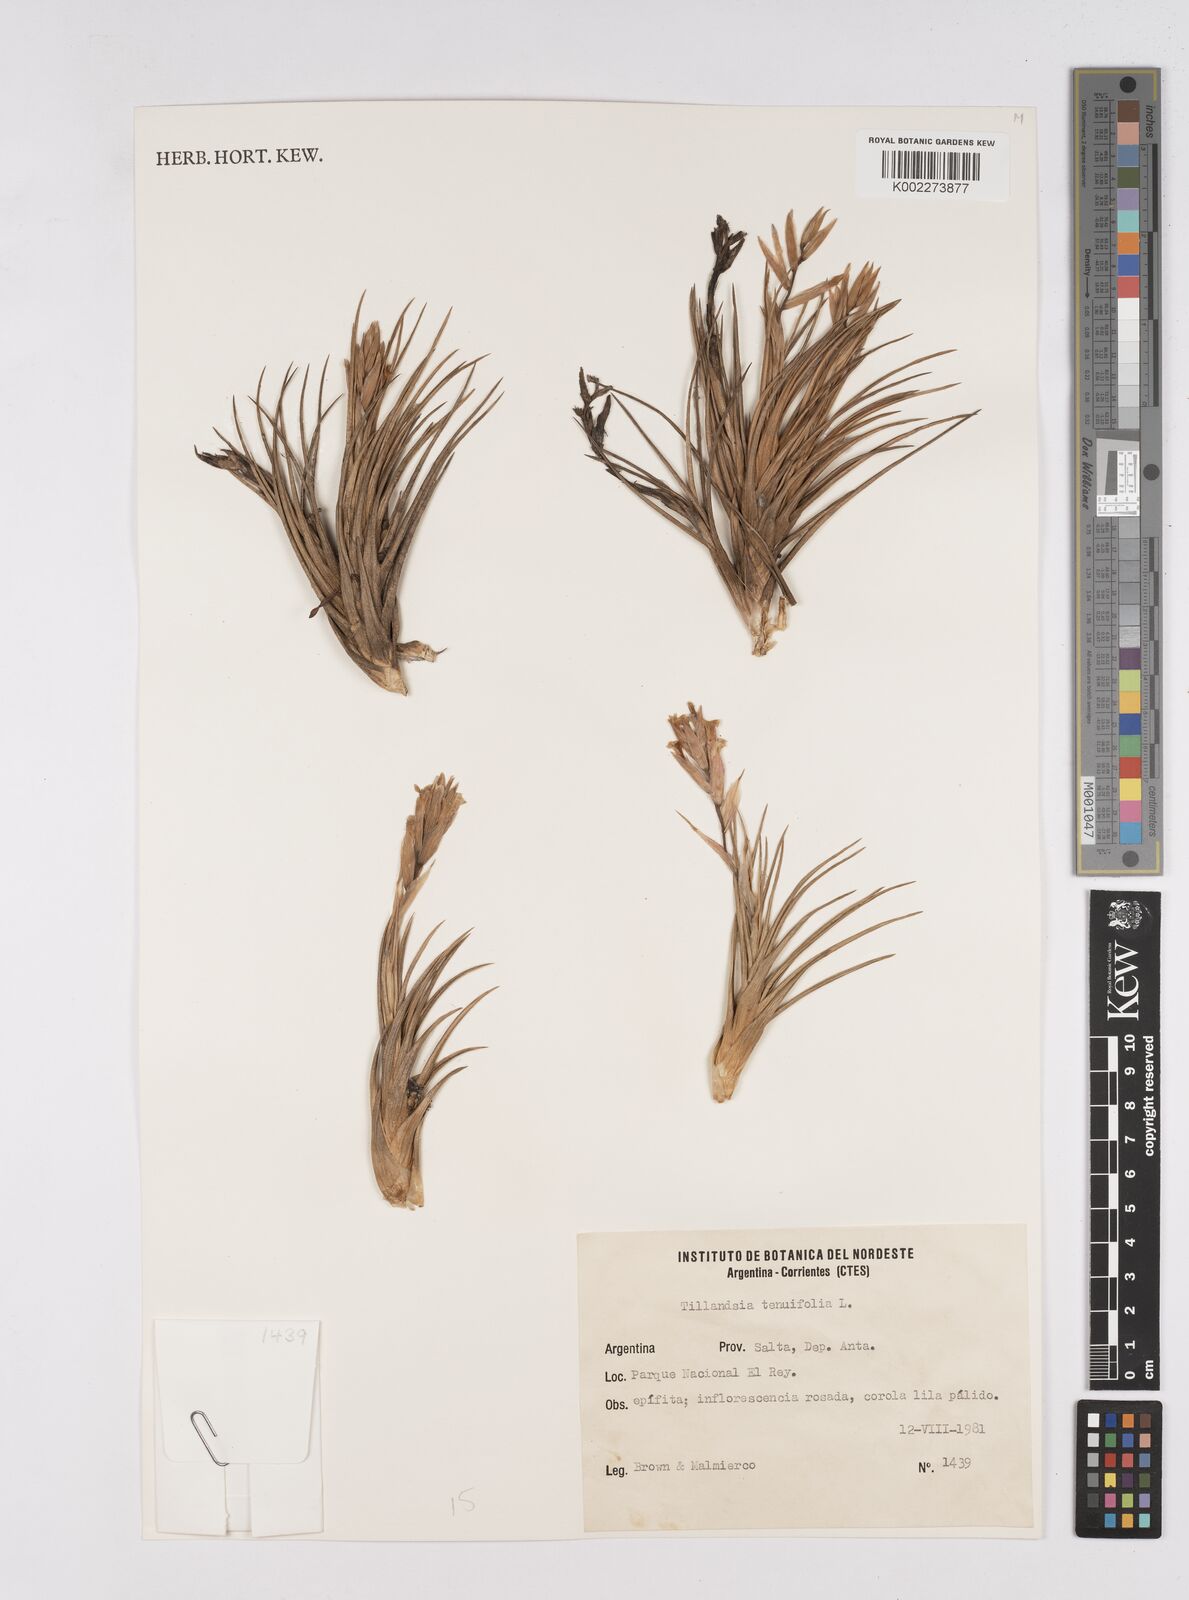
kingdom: Plantae
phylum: Tracheophyta
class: Liliopsida
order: Poales
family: Bromeliaceae
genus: Tillandsia
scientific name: Tillandsia tenuifolia
